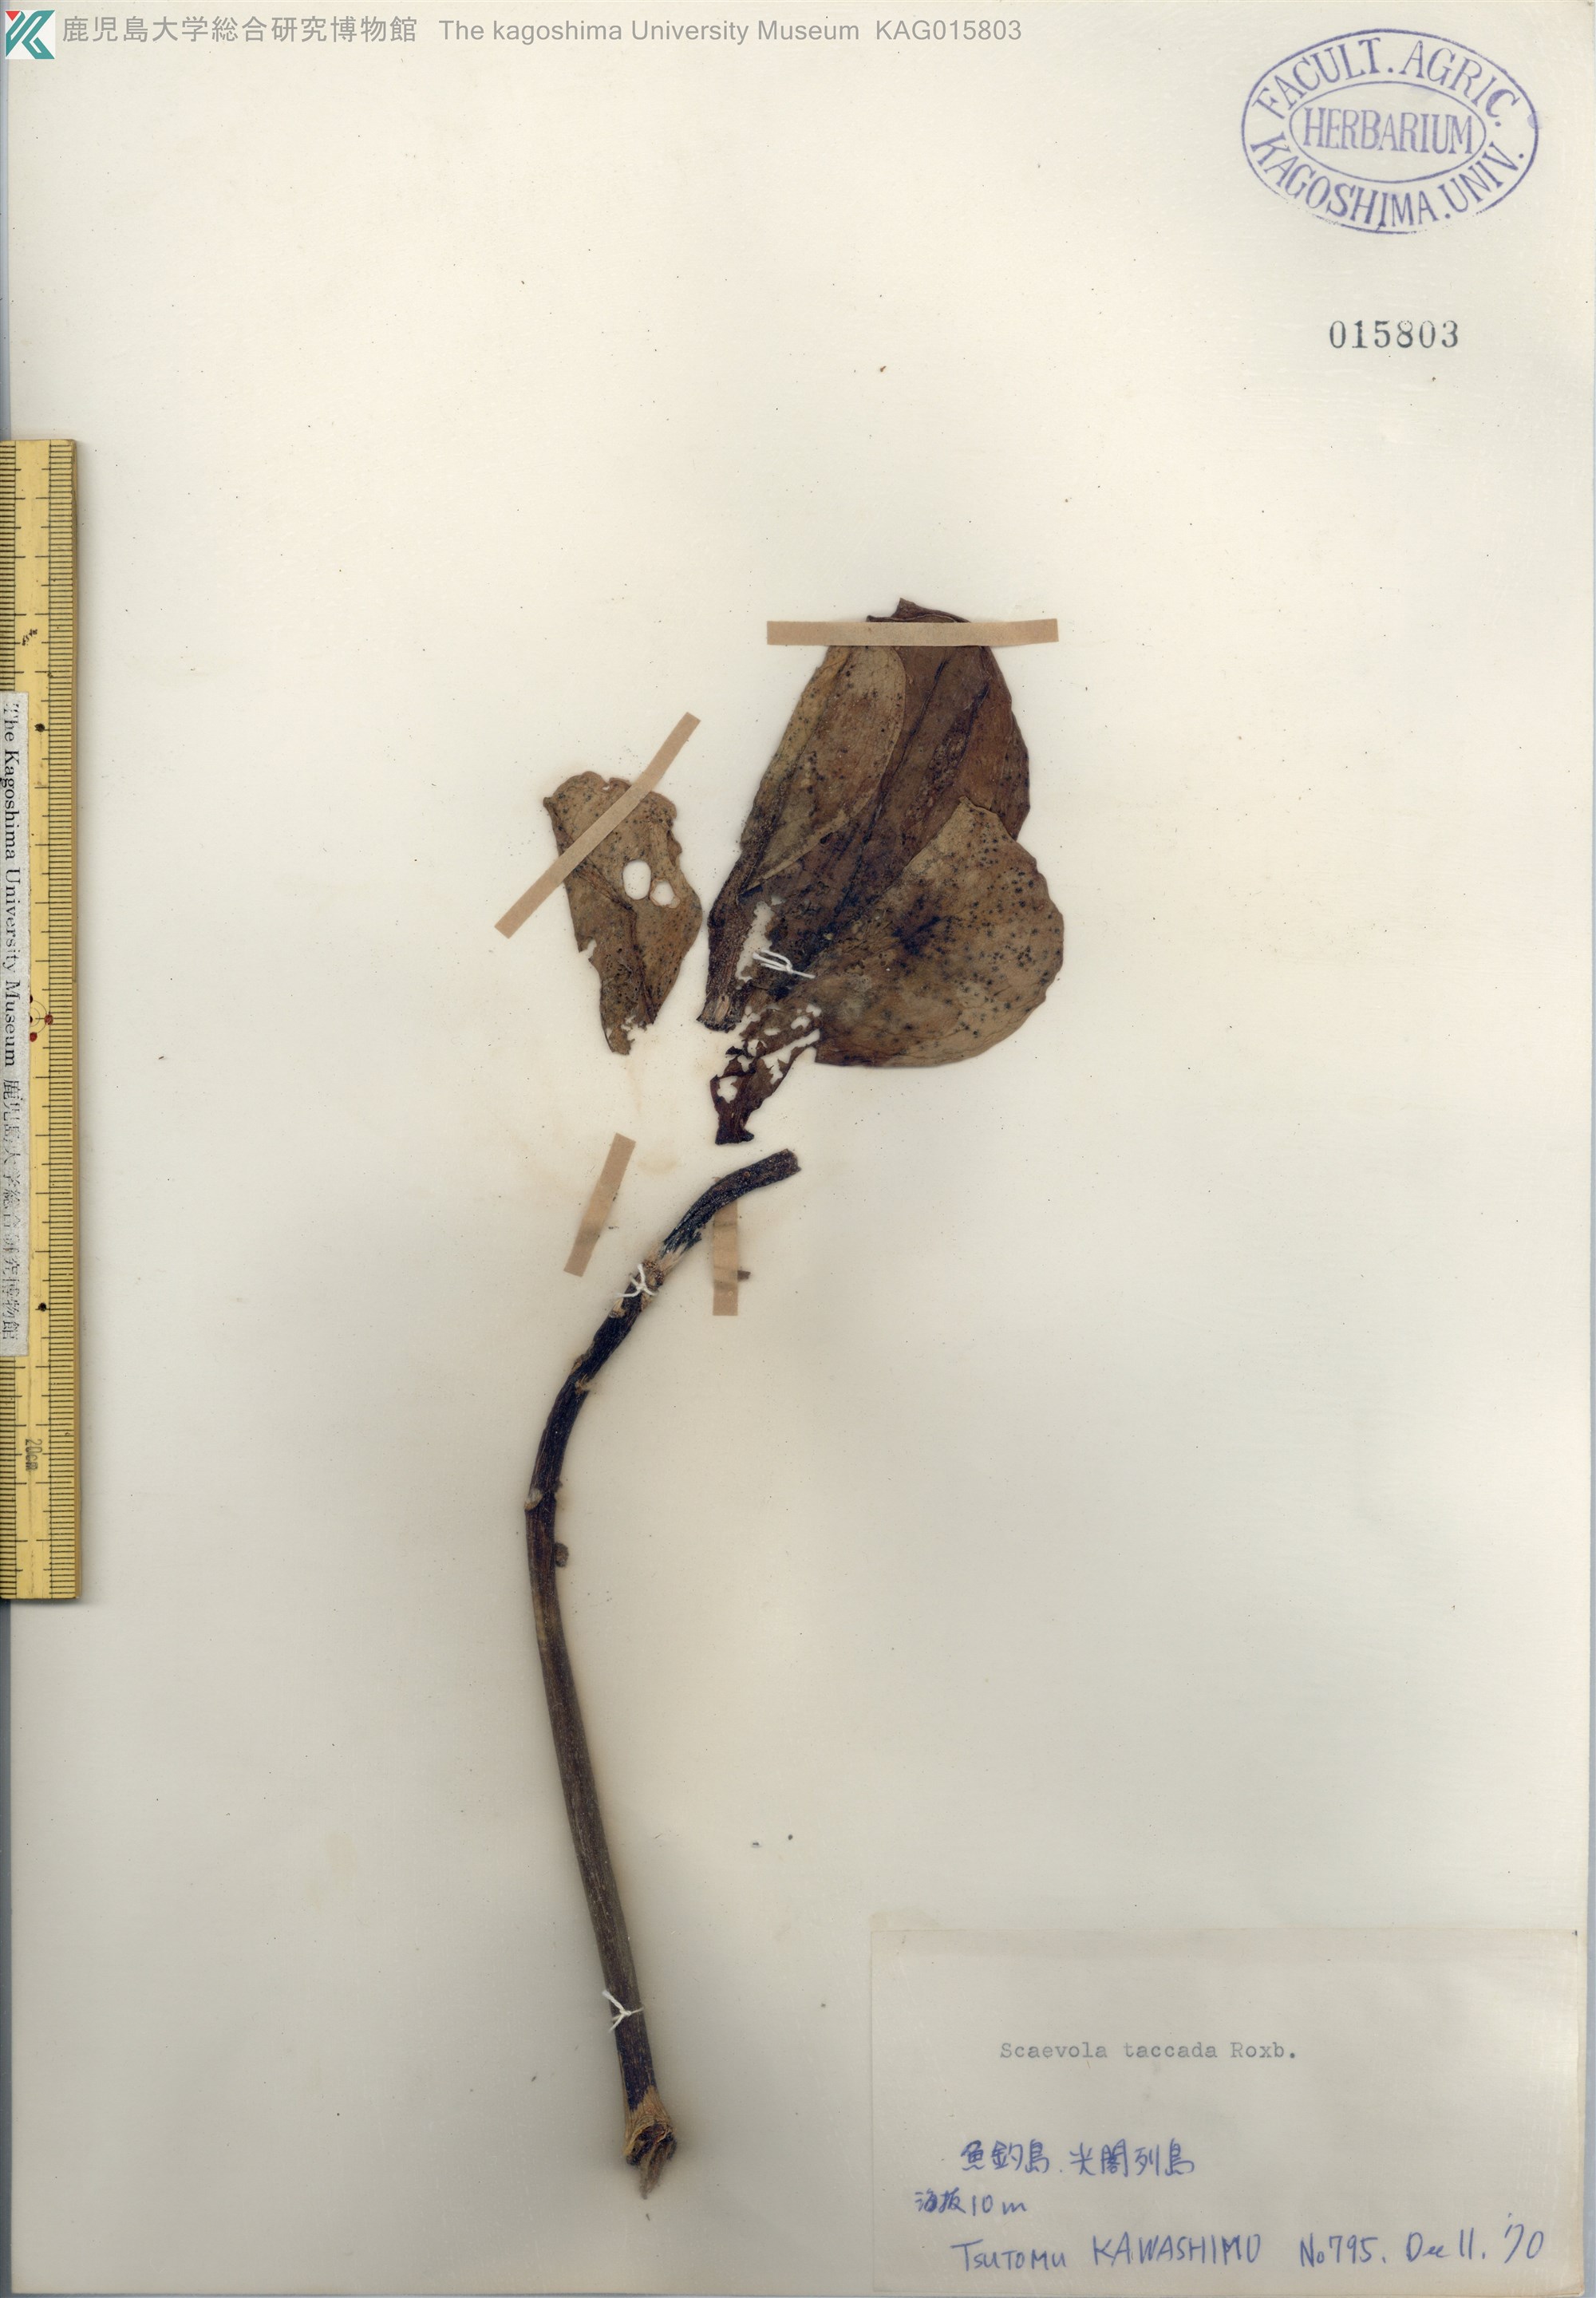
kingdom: Plantae
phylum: Tracheophyta
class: Magnoliopsida
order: Asterales
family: Goodeniaceae
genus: Scaevola
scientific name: Scaevola taccada
